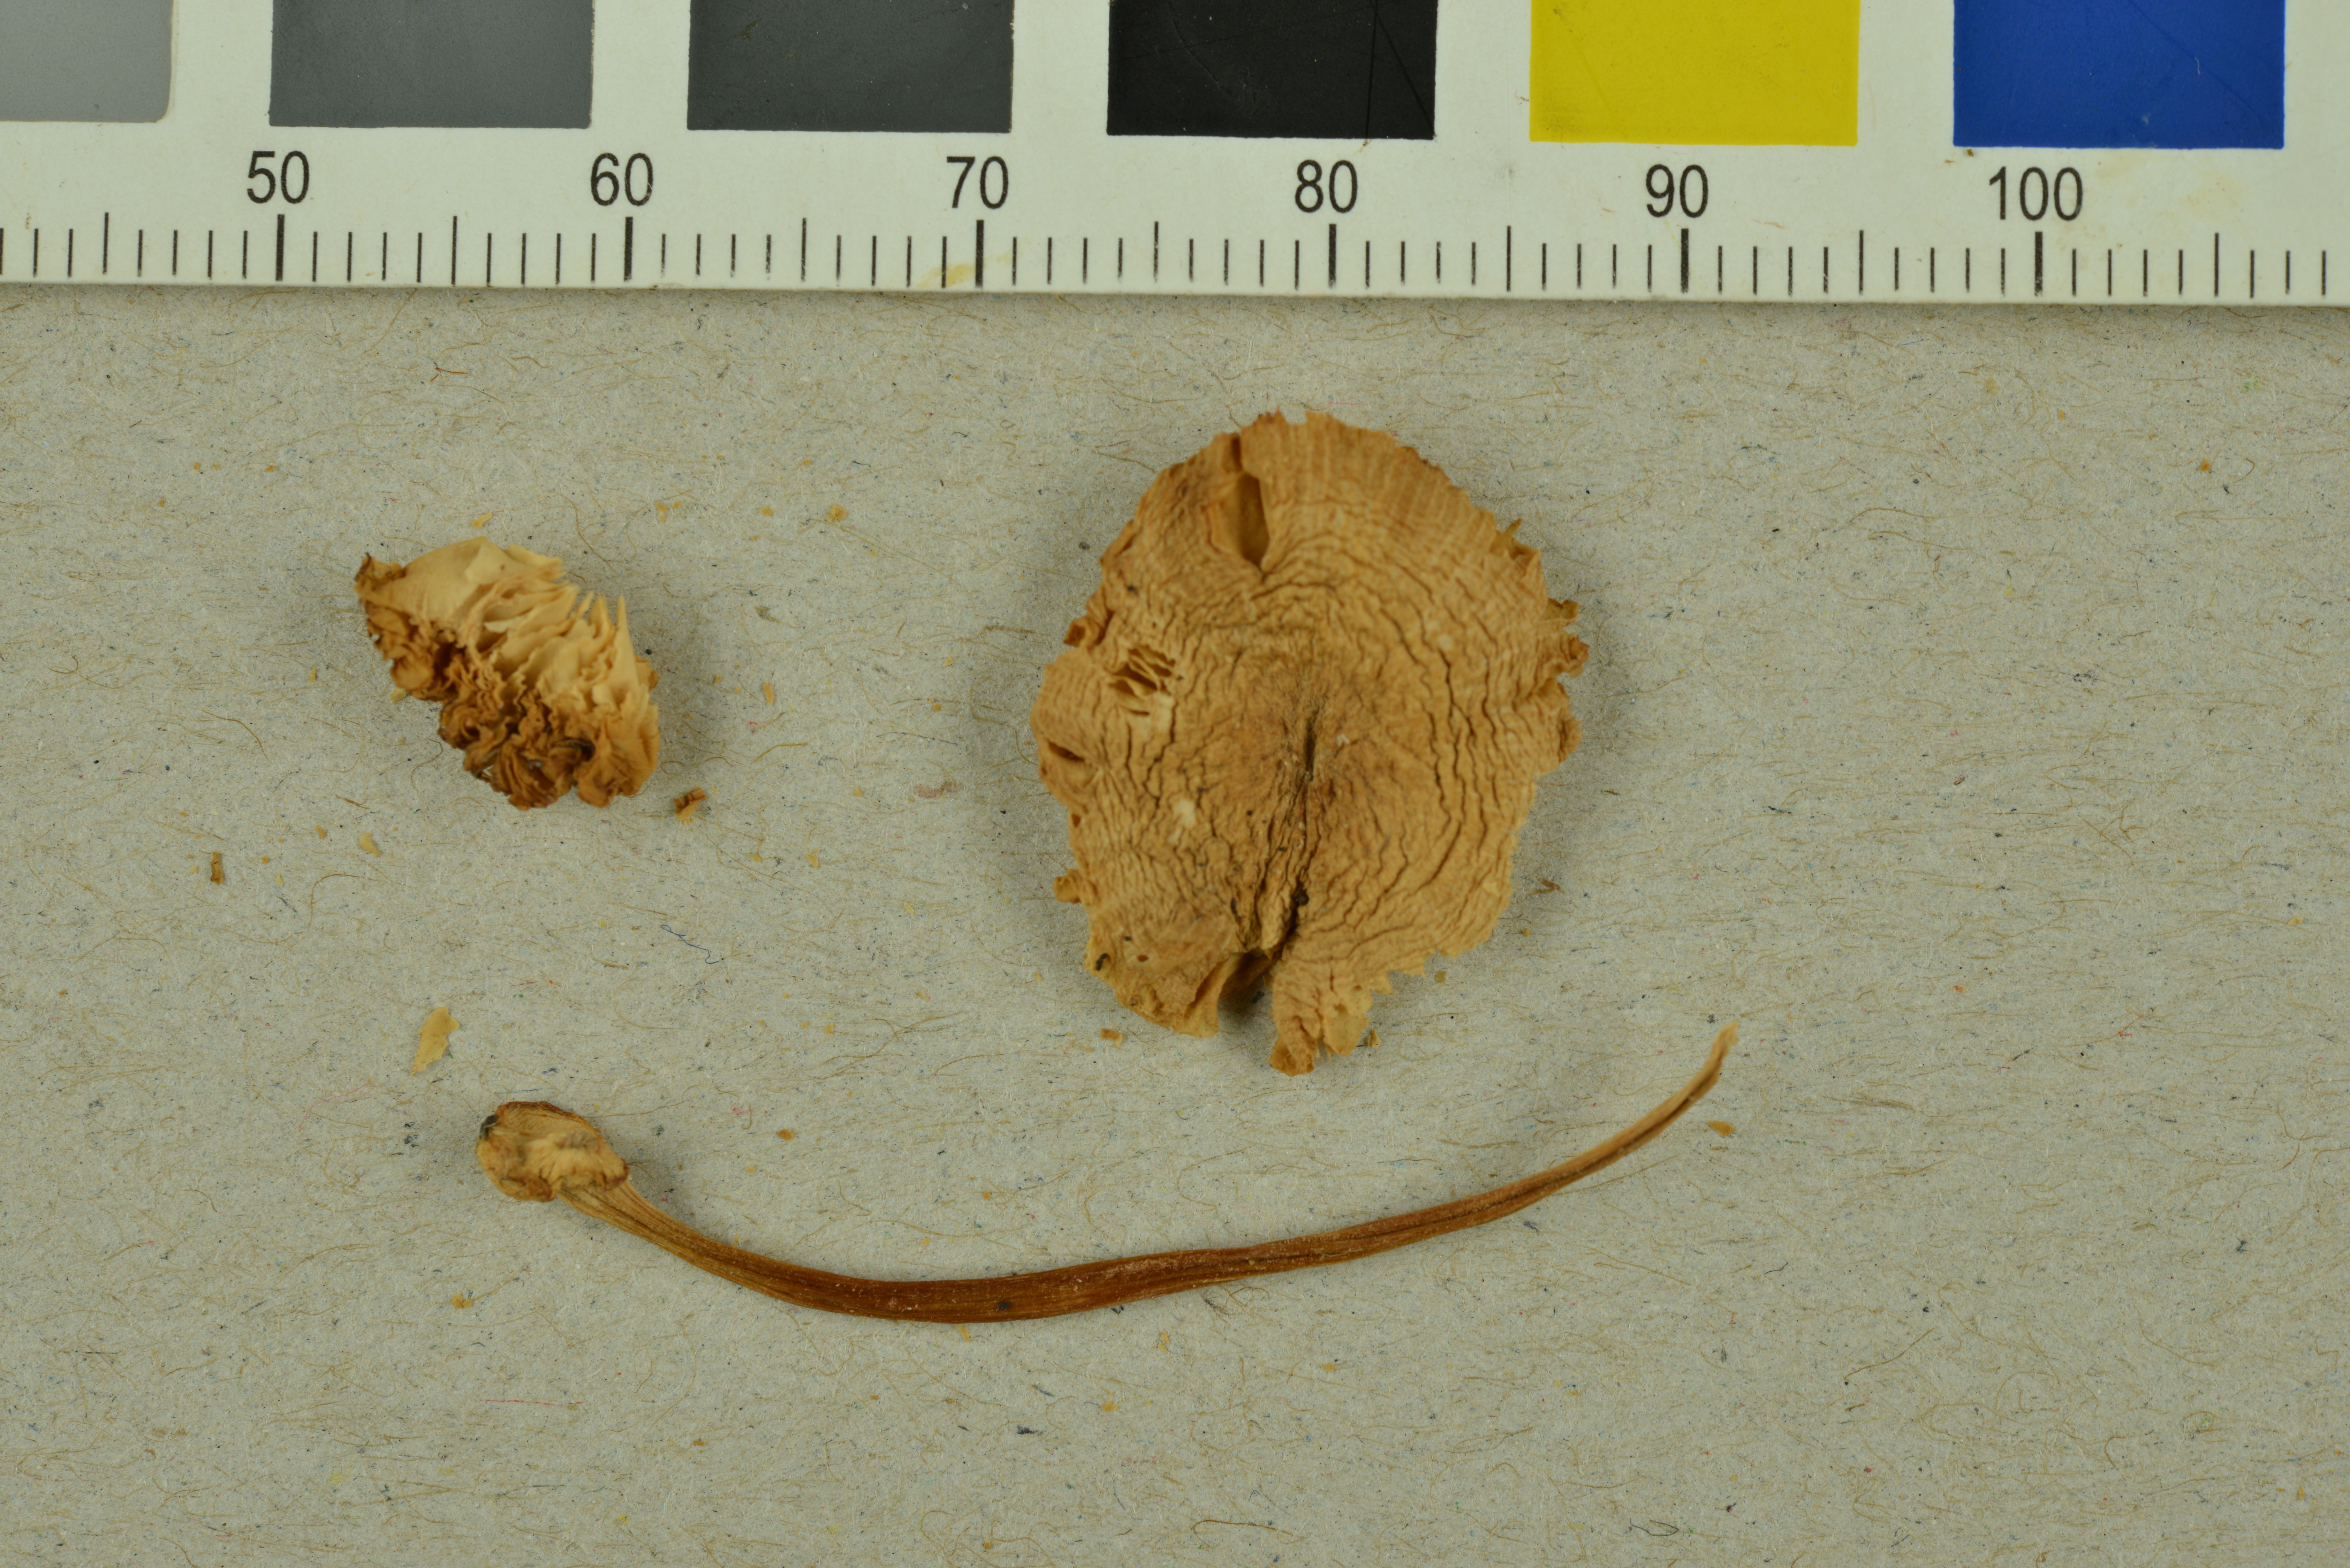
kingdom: Fungi
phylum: Basidiomycota
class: Agaricomycetes
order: Agaricales
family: Pluteaceae
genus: Pluteus
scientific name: Pluteus semibulbosus
